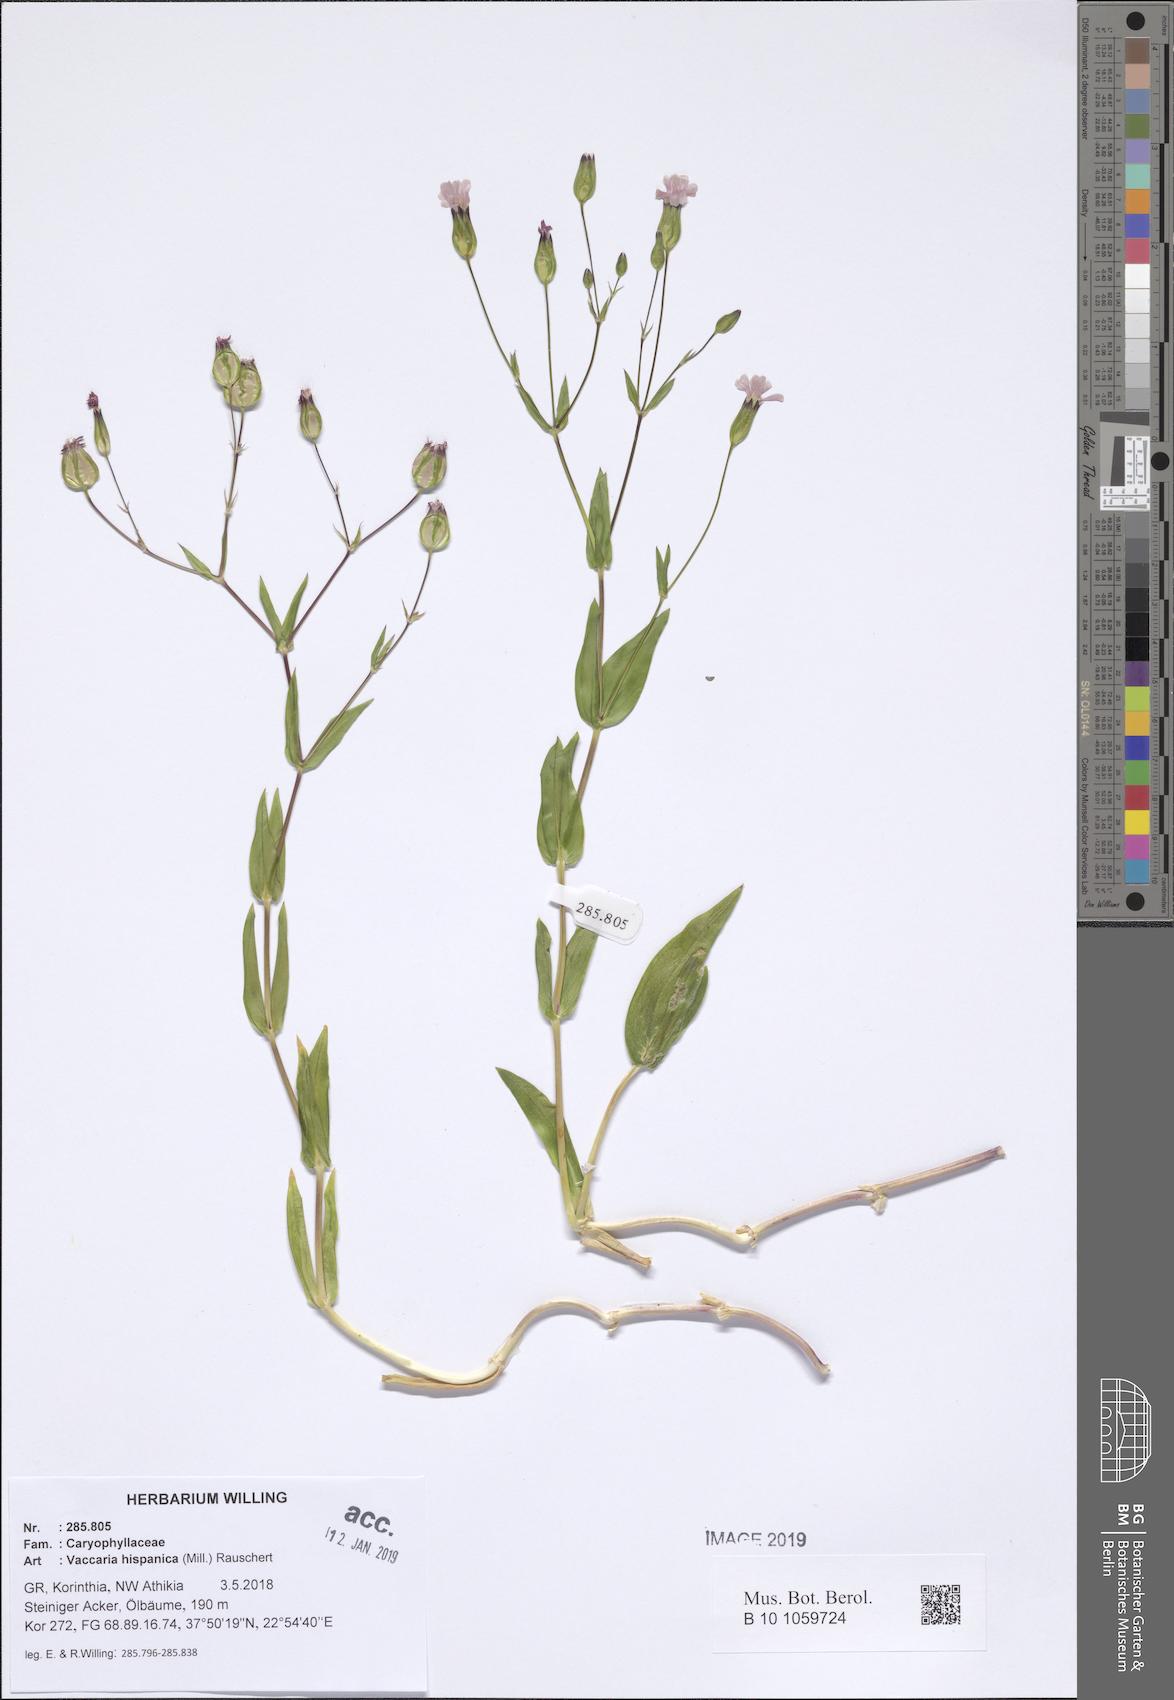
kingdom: Plantae
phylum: Tracheophyta
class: Magnoliopsida
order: Caryophyllales
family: Caryophyllaceae
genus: Gypsophila
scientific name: Gypsophila vaccaria
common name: Cow soapwort
